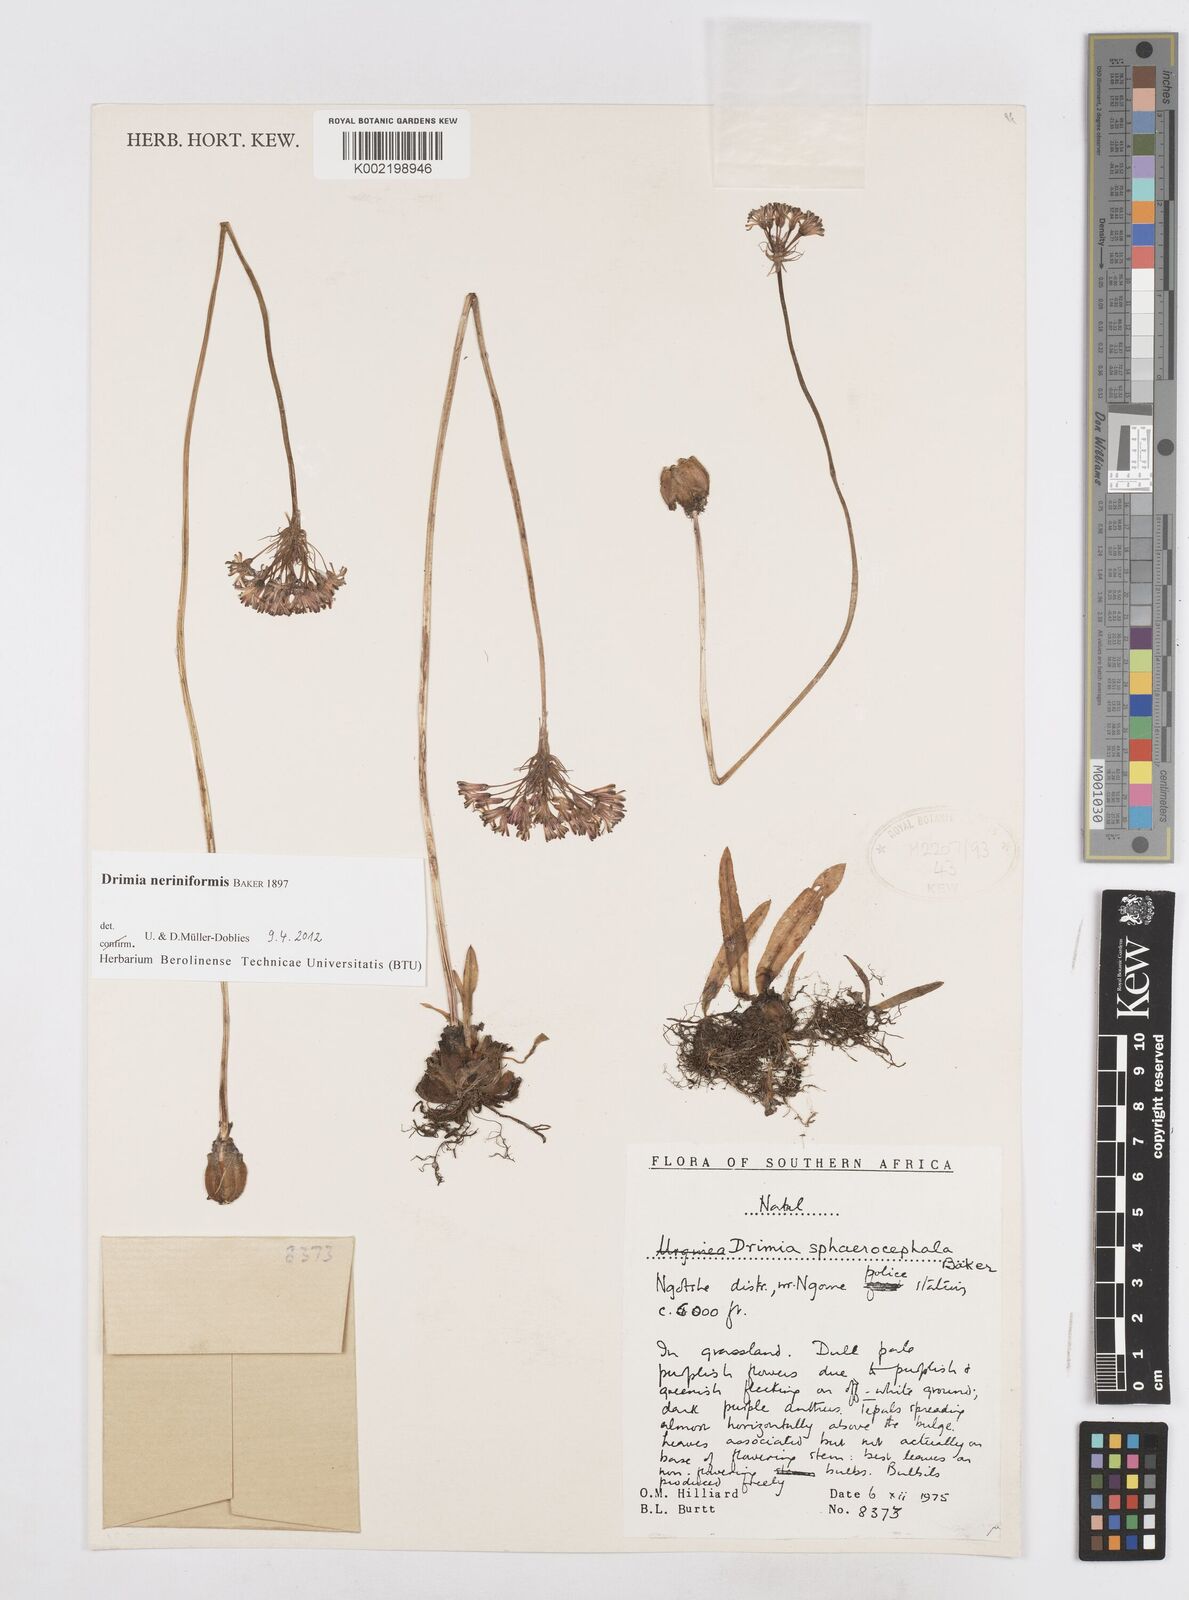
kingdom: Plantae
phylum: Tracheophyta
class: Liliopsida
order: Asparagales
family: Asparagaceae
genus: Drimia
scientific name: Drimia sphaerocephala
